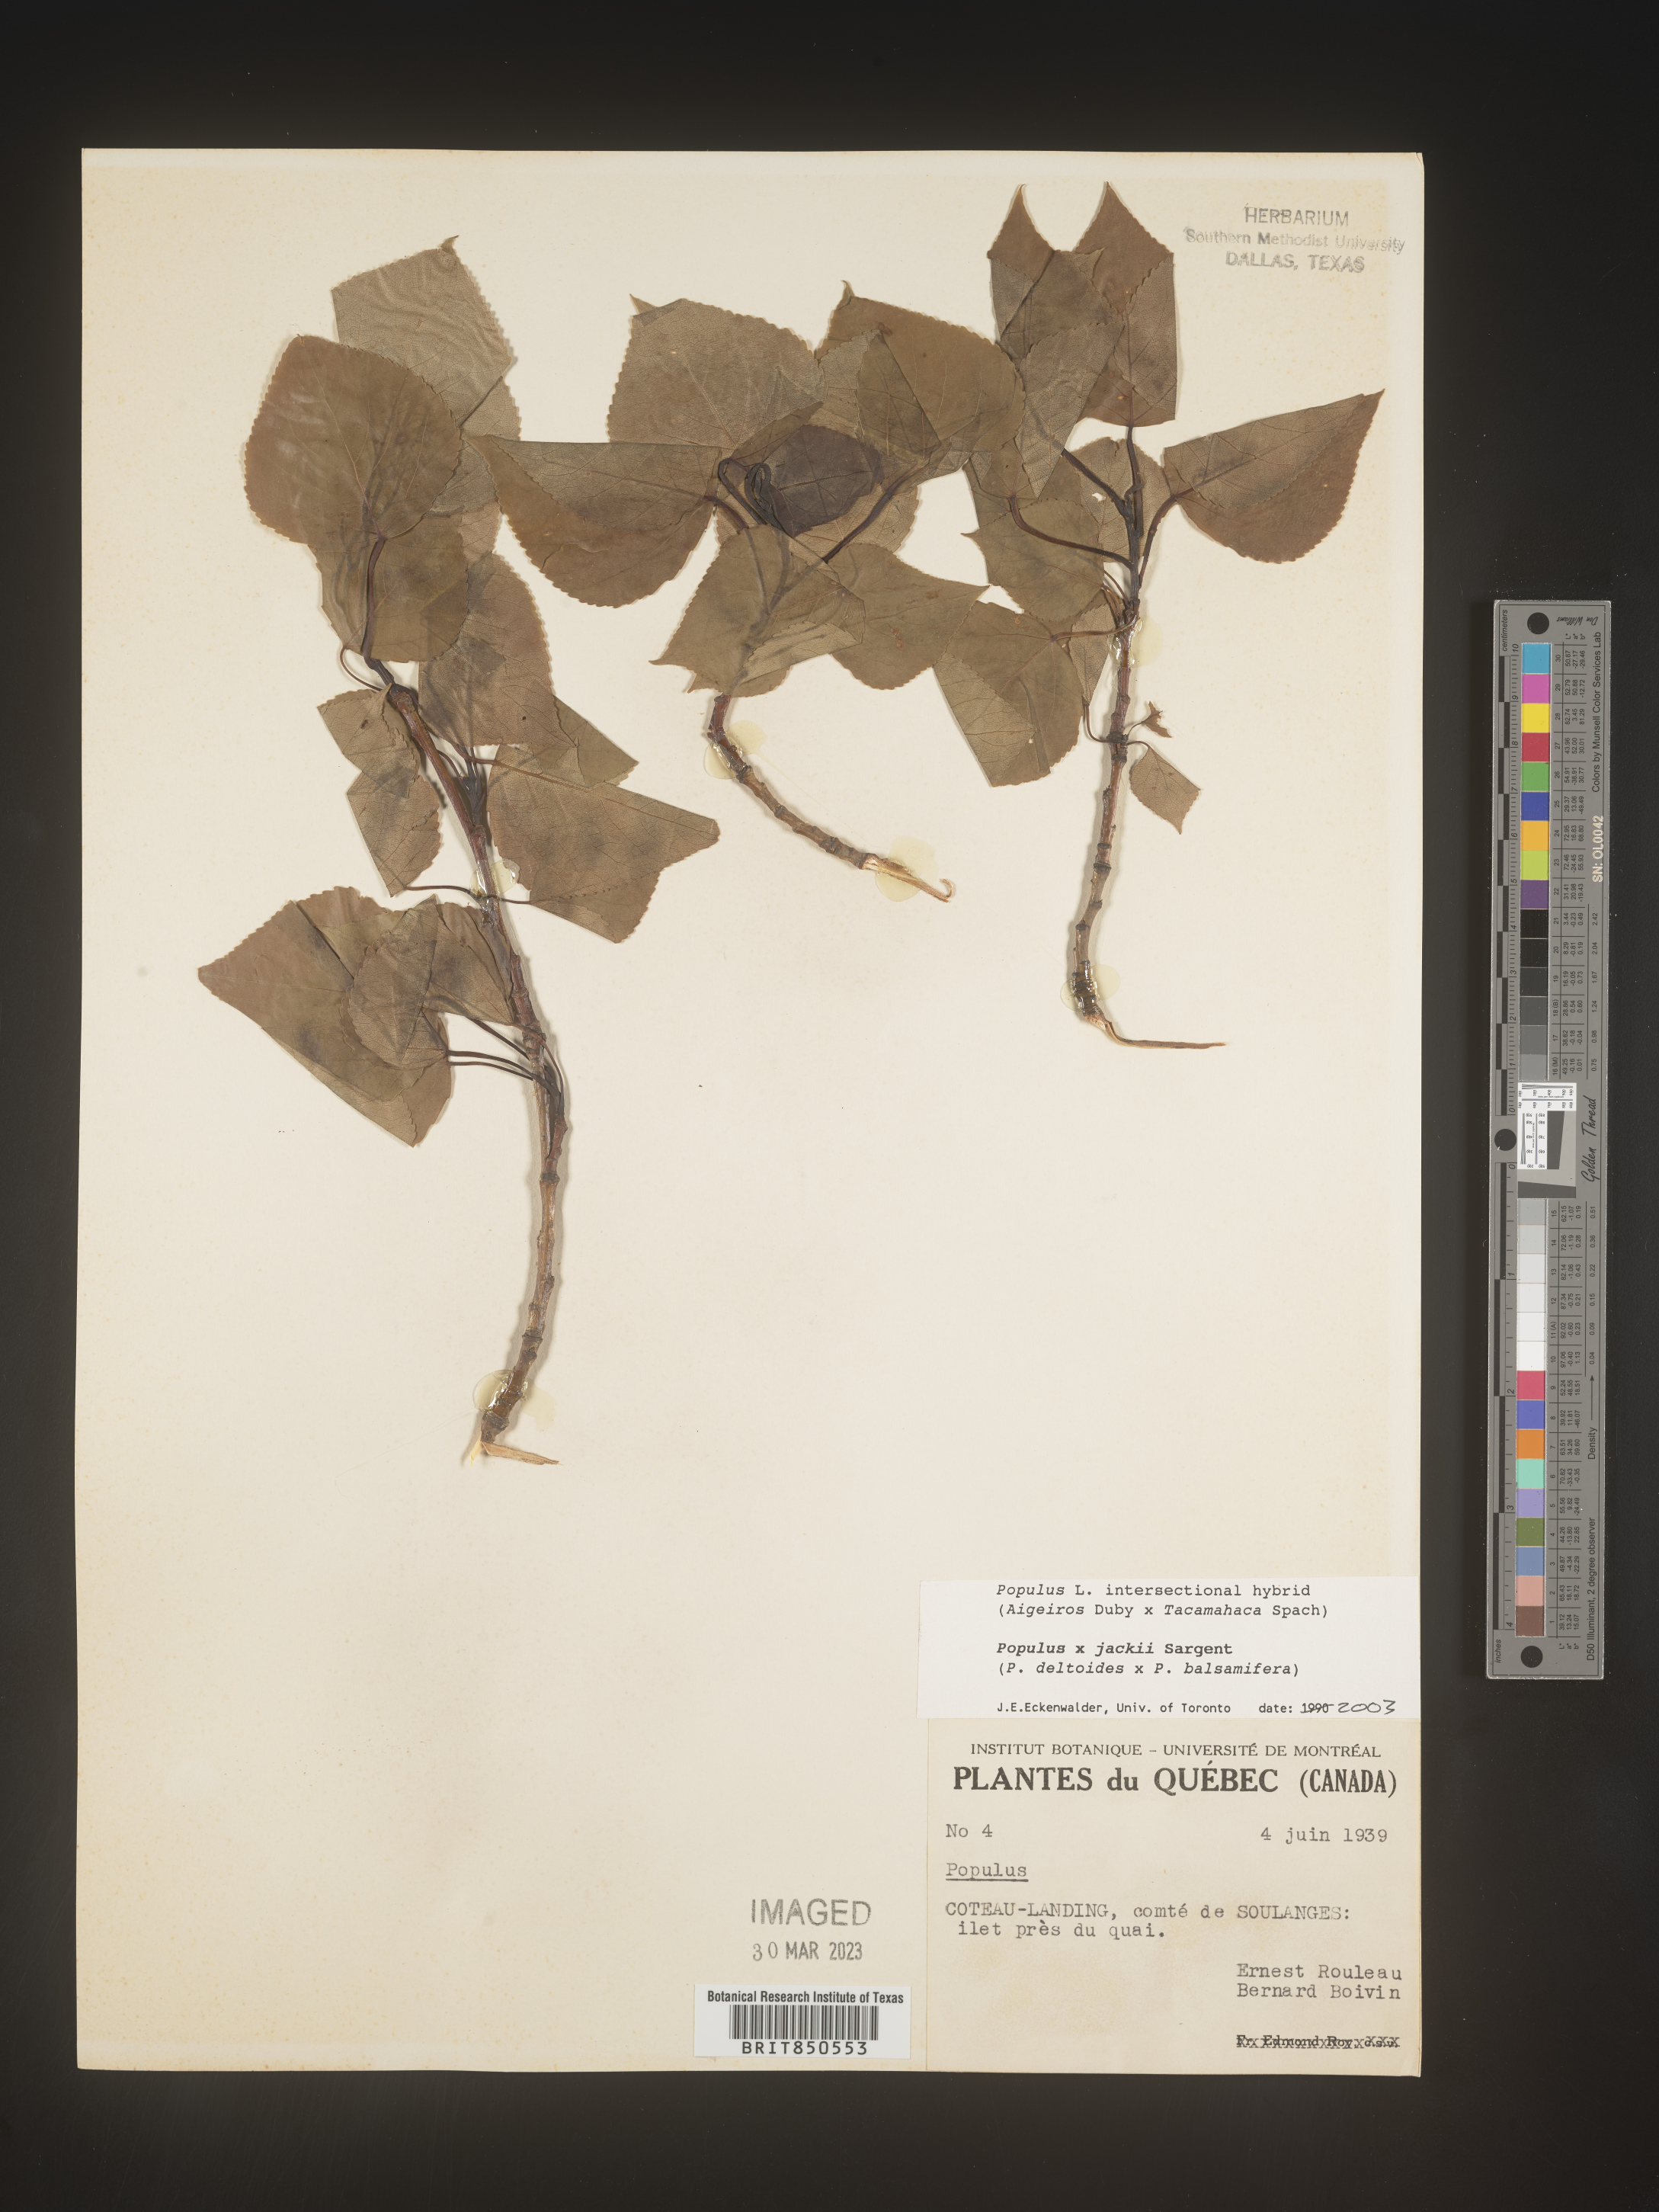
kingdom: Plantae
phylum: Tracheophyta
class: Magnoliopsida
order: Malpighiales
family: Salicaceae
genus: Populus
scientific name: Populus
